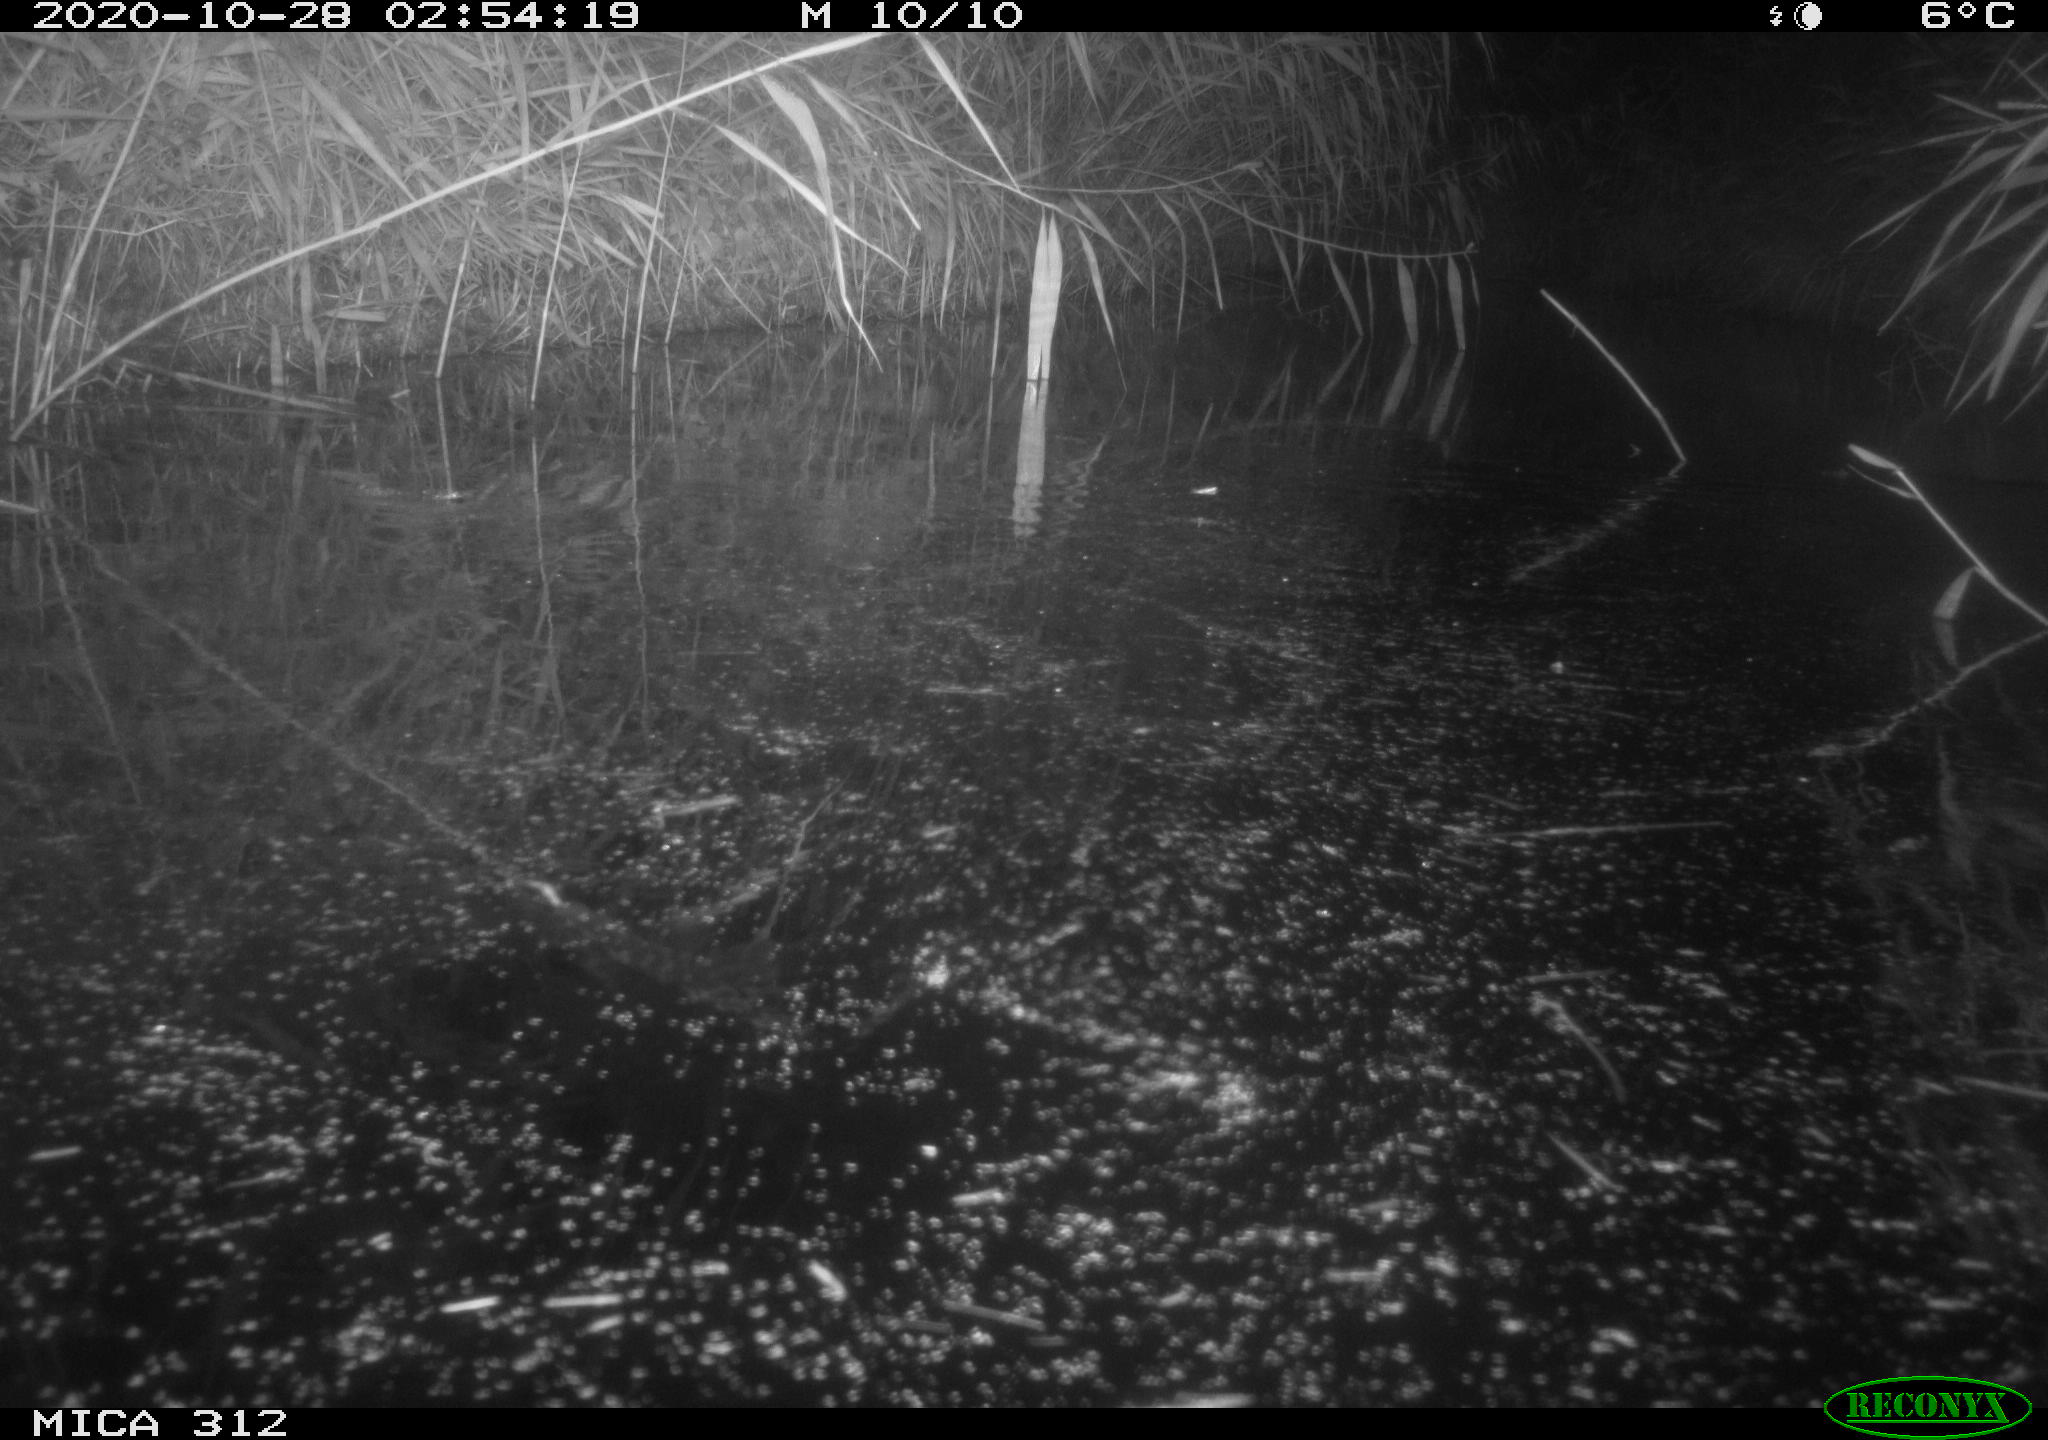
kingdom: Animalia
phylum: Chordata
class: Mammalia
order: Rodentia
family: Muridae
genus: Rattus
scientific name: Rattus norvegicus
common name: Brown rat
